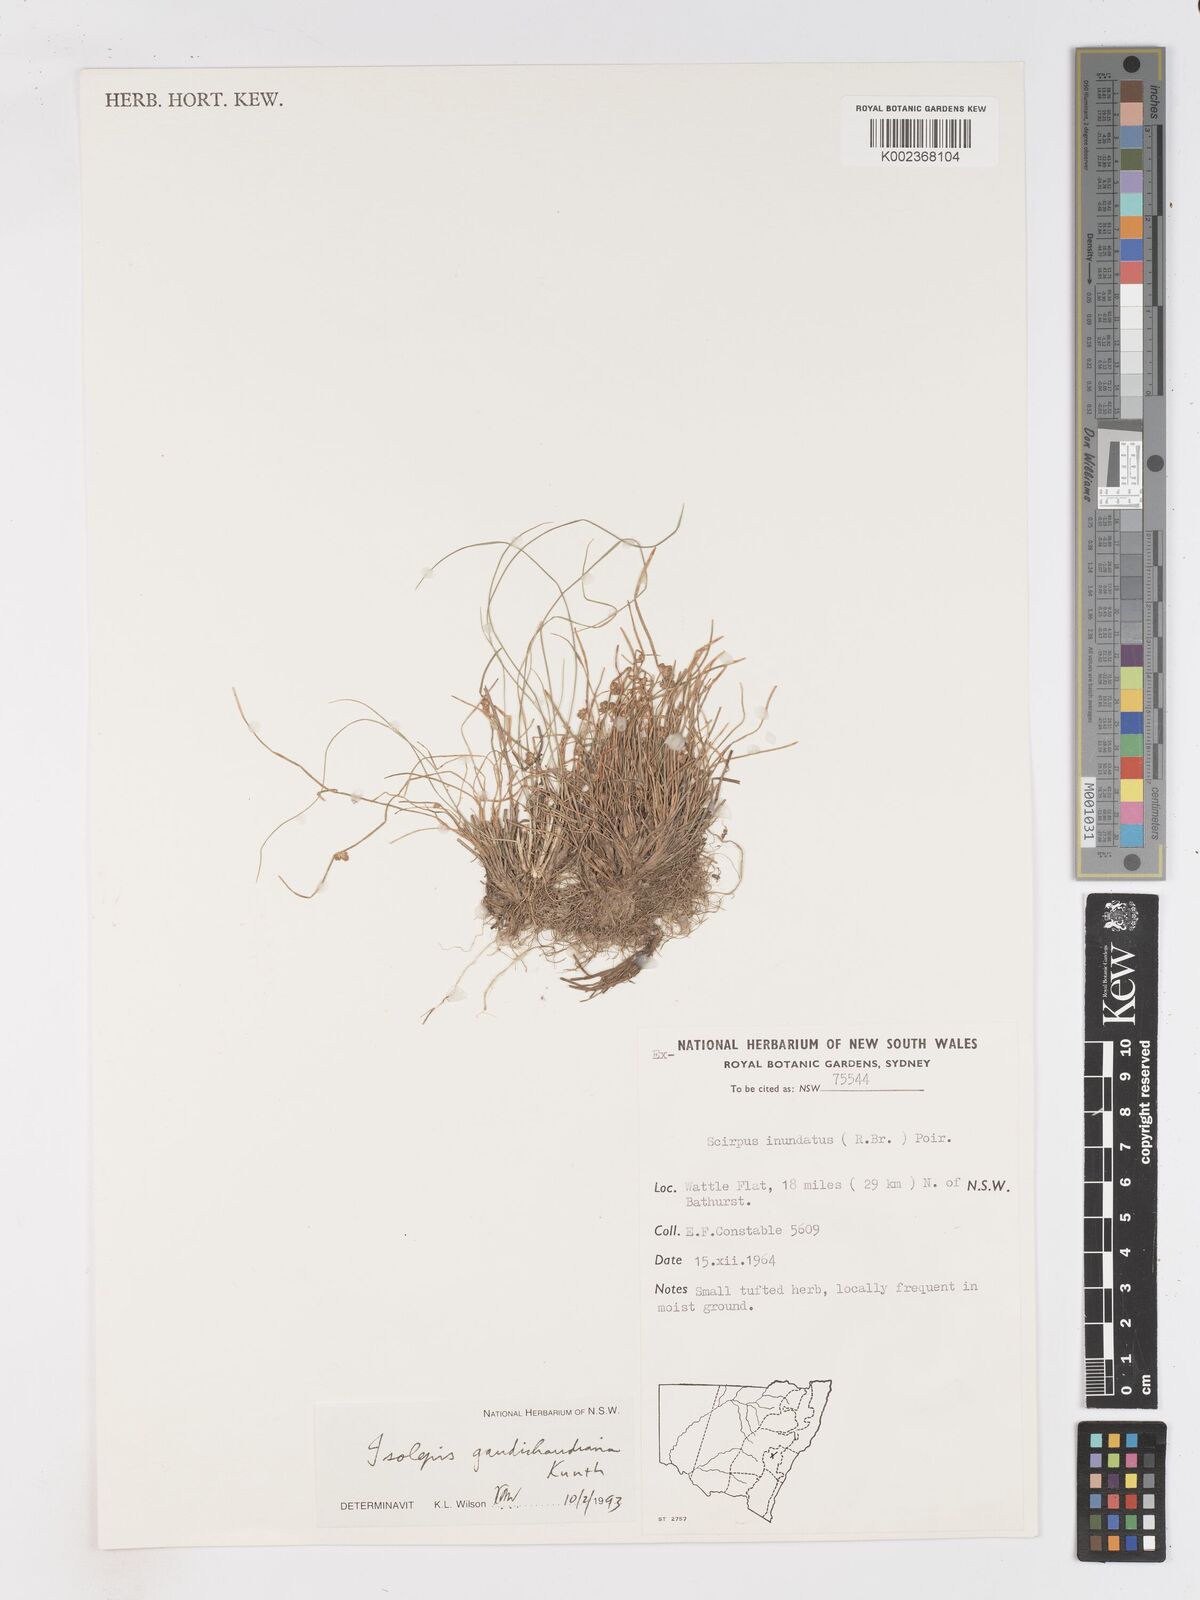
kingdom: Plantae
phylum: Tracheophyta
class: Liliopsida
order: Poales
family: Cyperaceae
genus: Isolepis
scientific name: Isolepis gaudichaudiana
